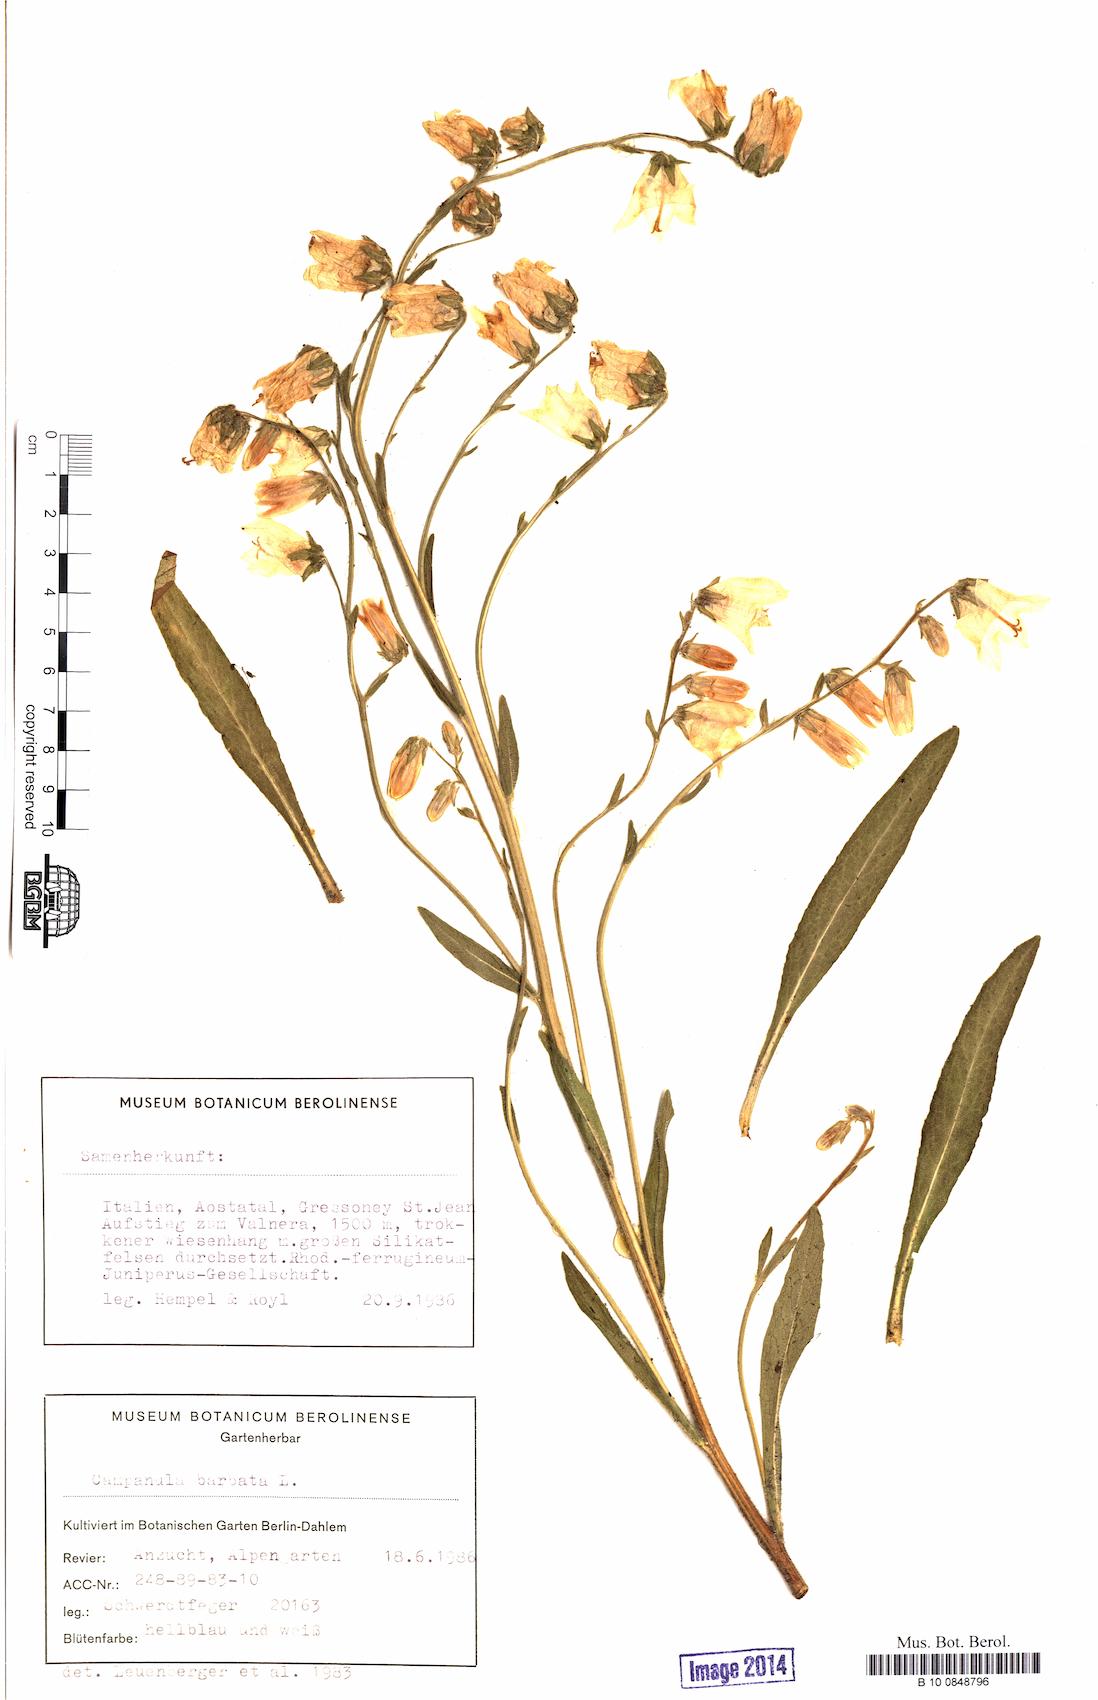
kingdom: Plantae
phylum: Tracheophyta
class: Magnoliopsida
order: Asterales
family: Campanulaceae
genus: Campanula
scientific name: Campanula barbata
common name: Bearded bellflower
